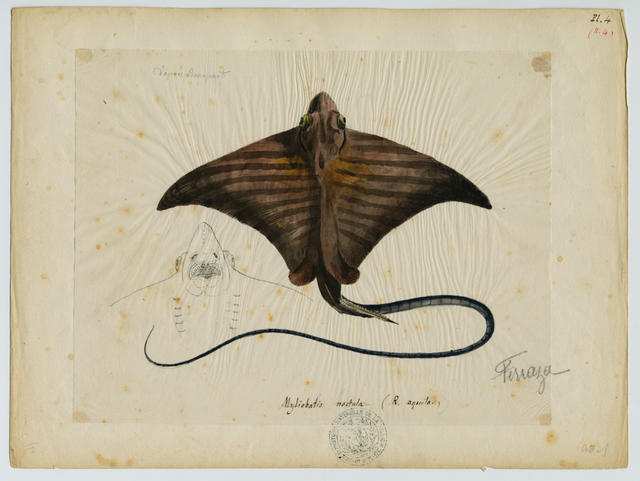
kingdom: Animalia
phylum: Chordata
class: Elasmobranchii
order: Myliobatiformes
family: Myliobatidae
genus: Aetomylaeus
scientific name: Aetomylaeus bovinus
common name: Bull ray
